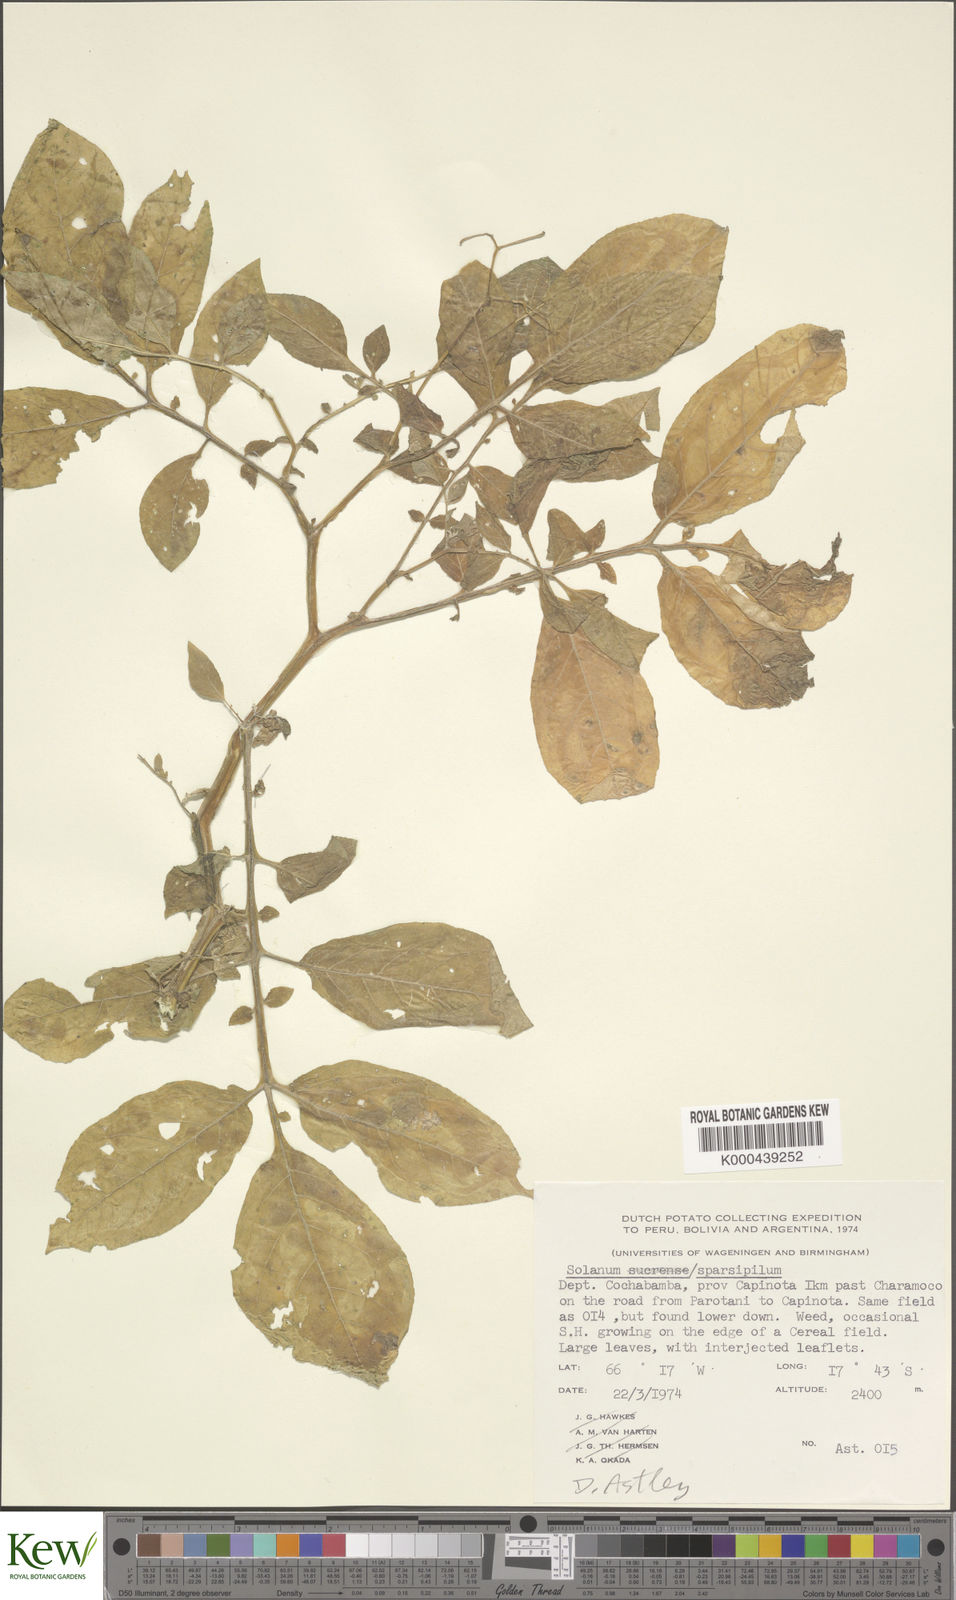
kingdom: Plantae
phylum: Tracheophyta
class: Magnoliopsida
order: Solanales
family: Solanaceae
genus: Solanum
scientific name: Solanum brevicaule
